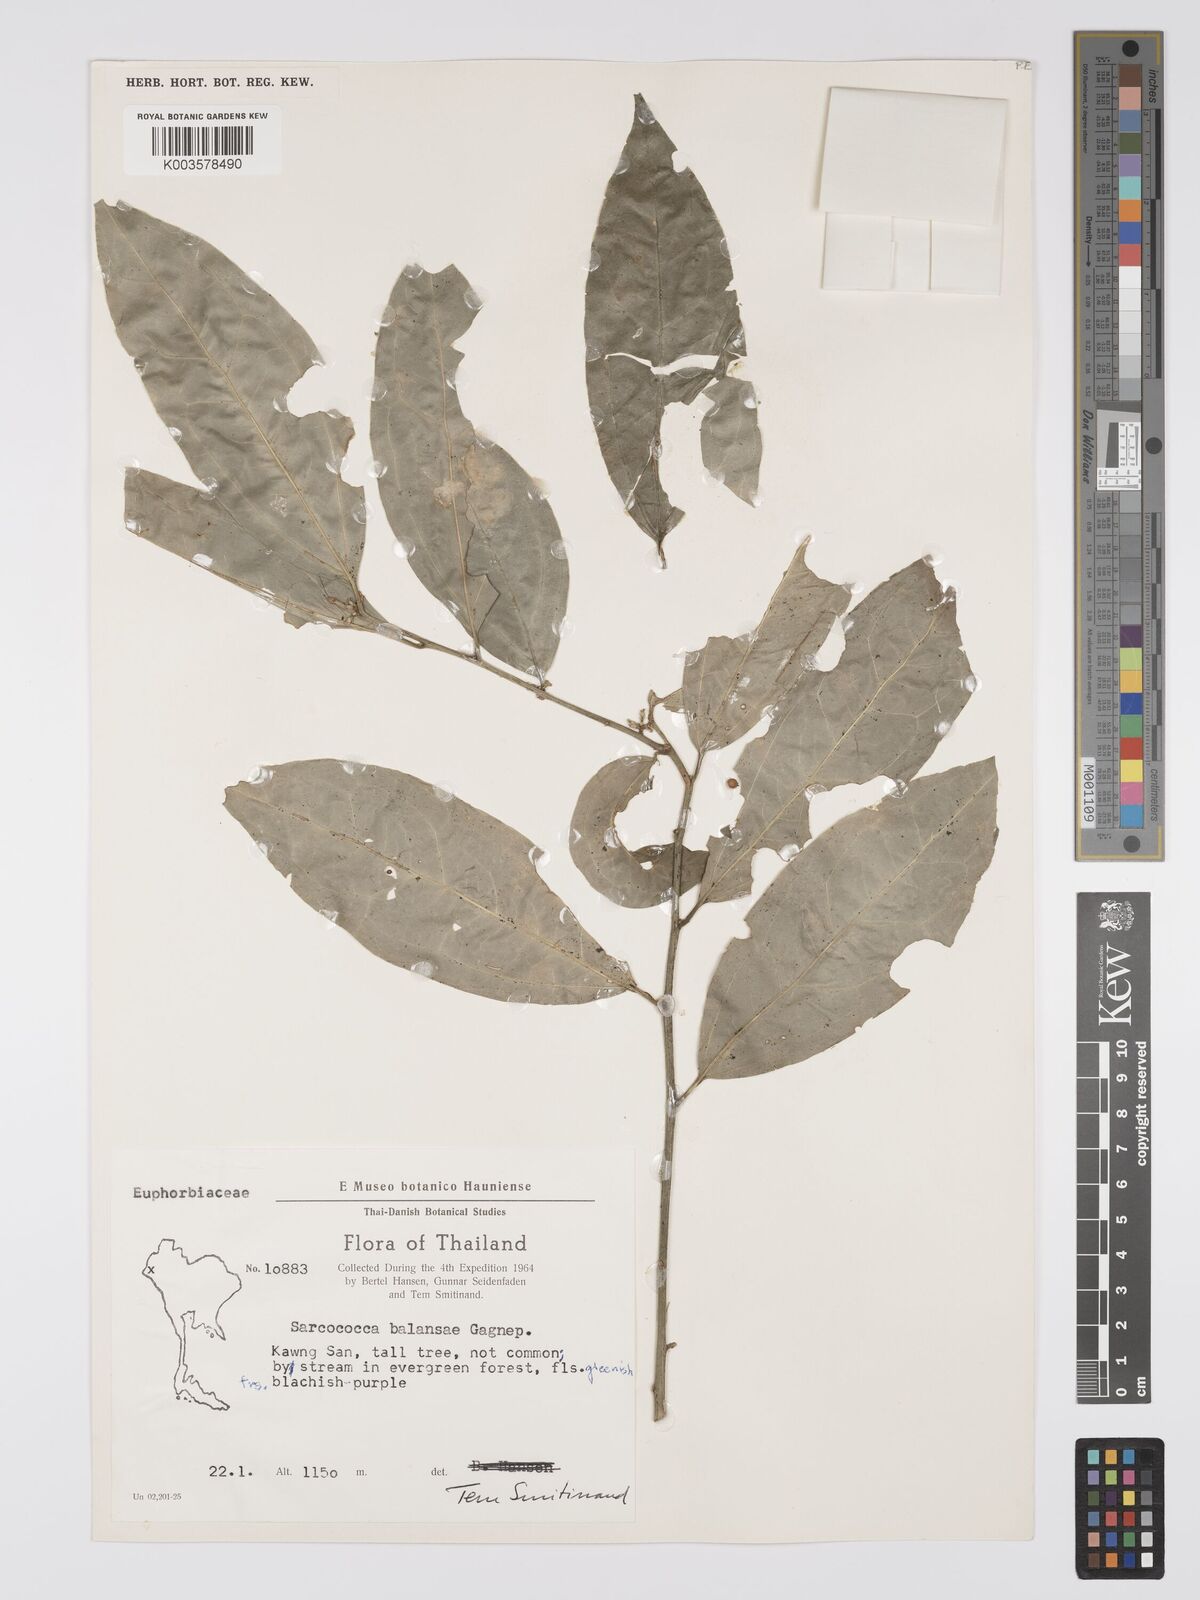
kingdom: Plantae
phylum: Tracheophyta
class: Magnoliopsida
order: Buxales
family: Buxaceae
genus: Sarcococca
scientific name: Sarcococca balansae
